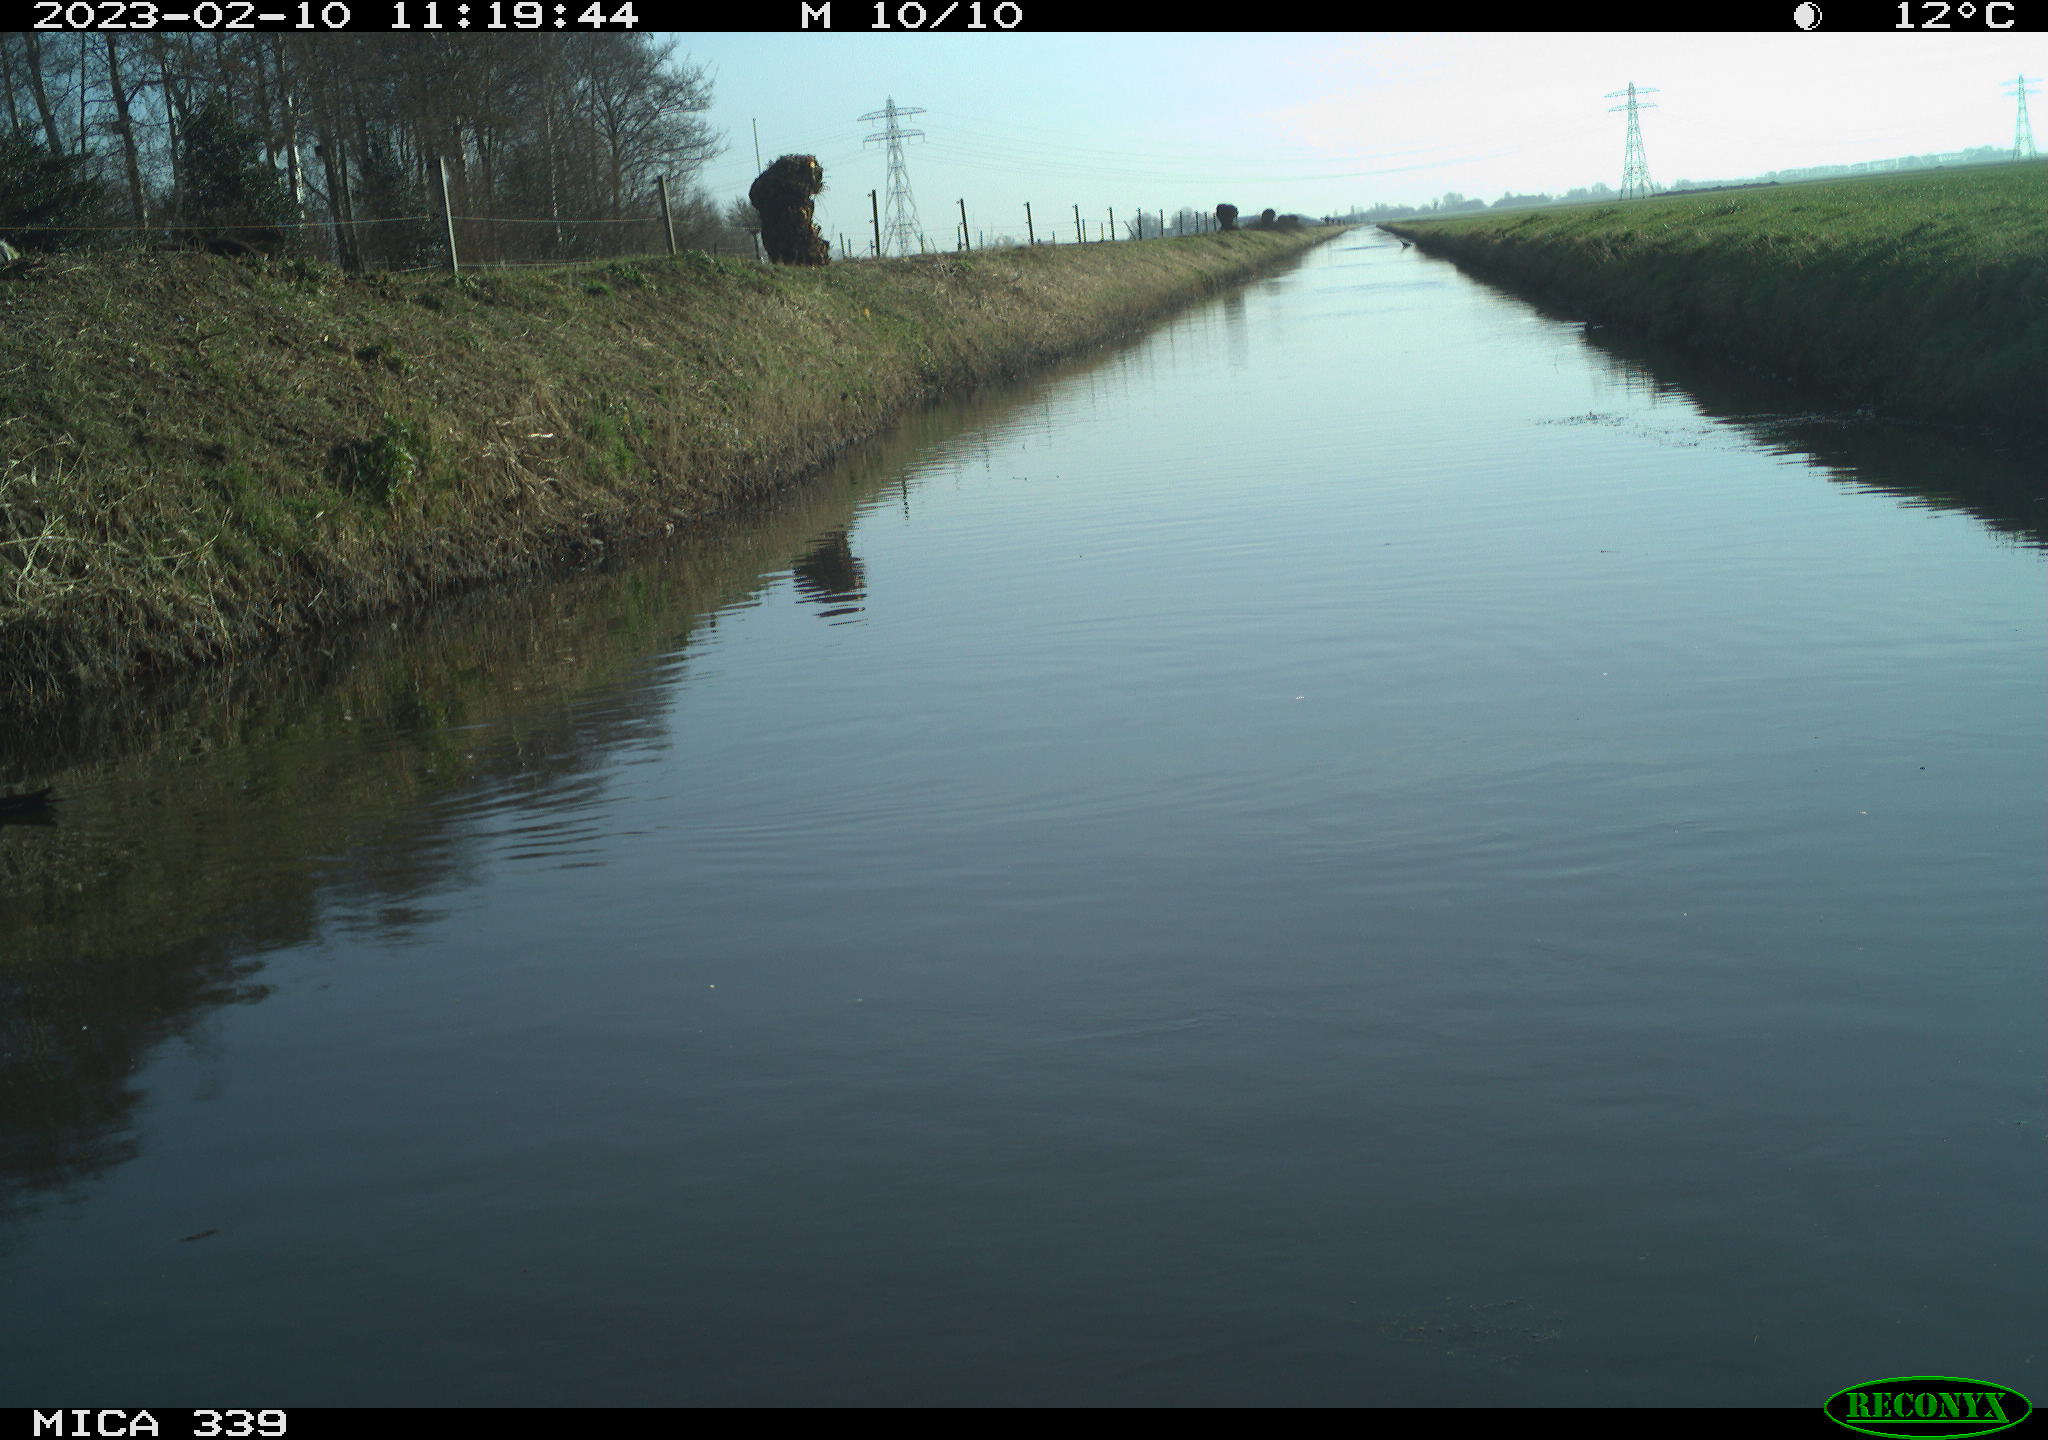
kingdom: Animalia
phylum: Chordata
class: Aves
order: Gruiformes
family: Rallidae
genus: Gallinula
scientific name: Gallinula chloropus
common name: Common moorhen
